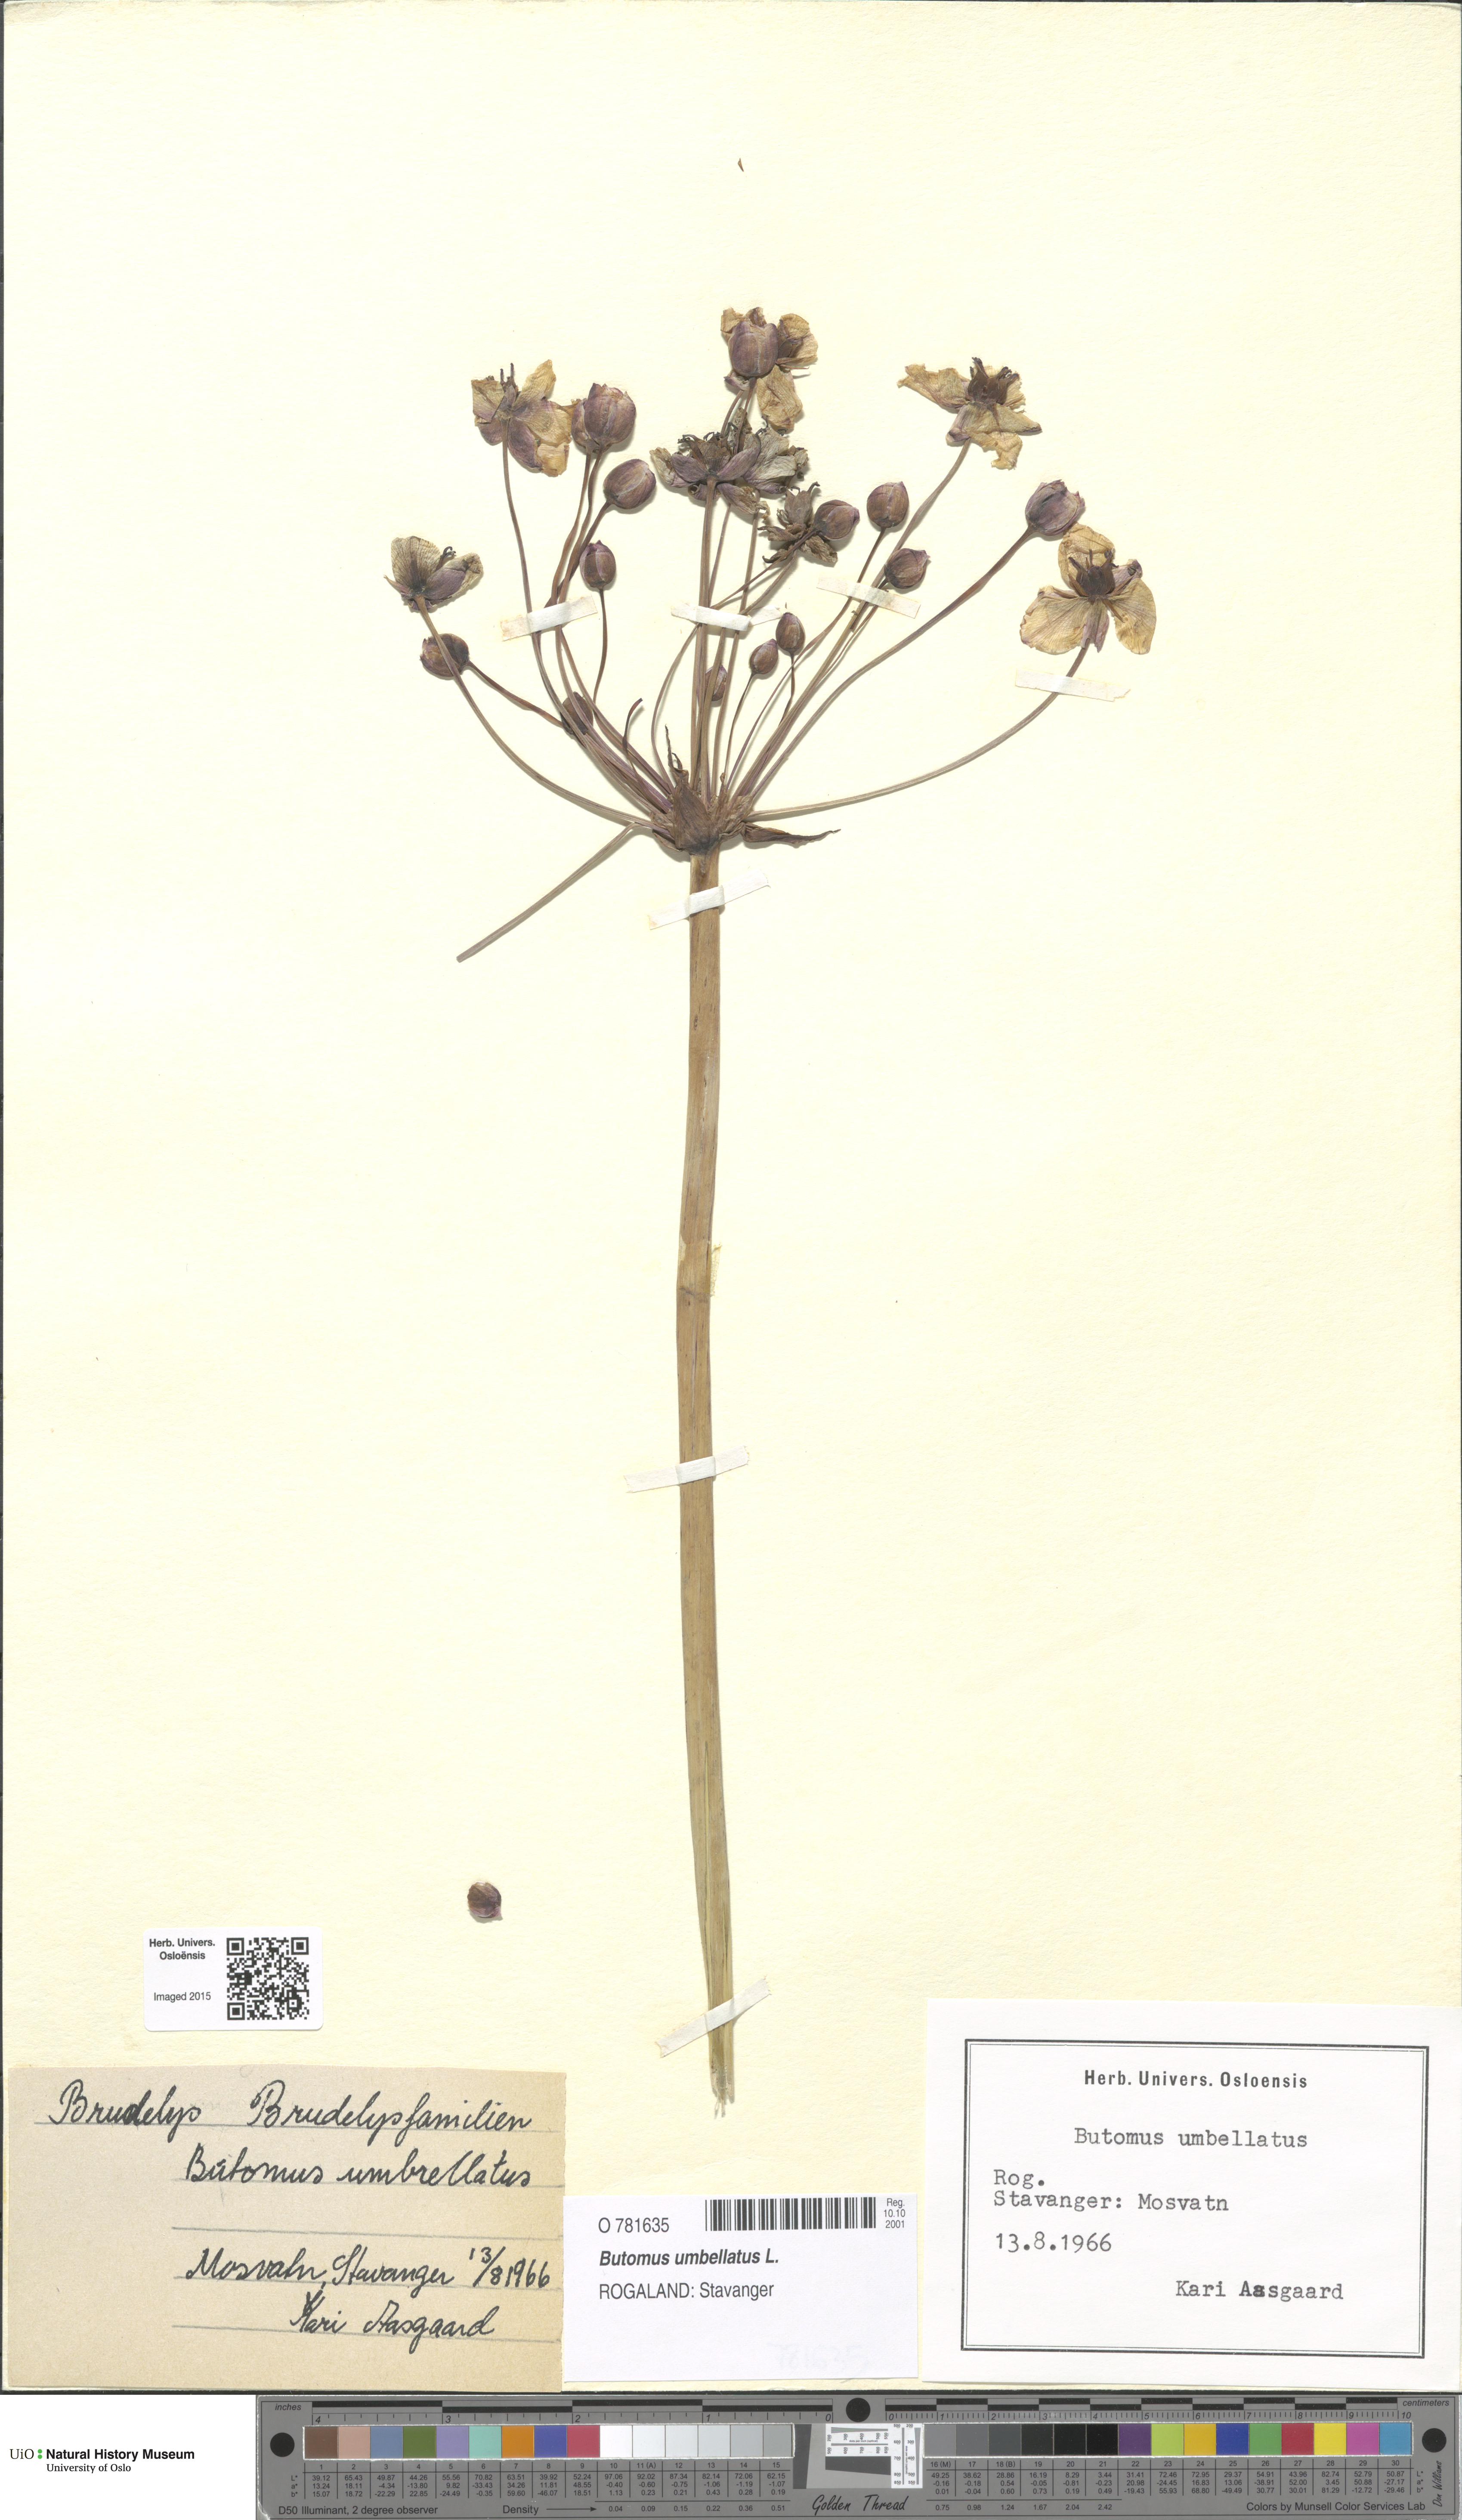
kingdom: Plantae
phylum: Tracheophyta
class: Liliopsida
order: Alismatales
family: Butomaceae
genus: Butomus
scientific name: Butomus umbellatus
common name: Flowering-rush
